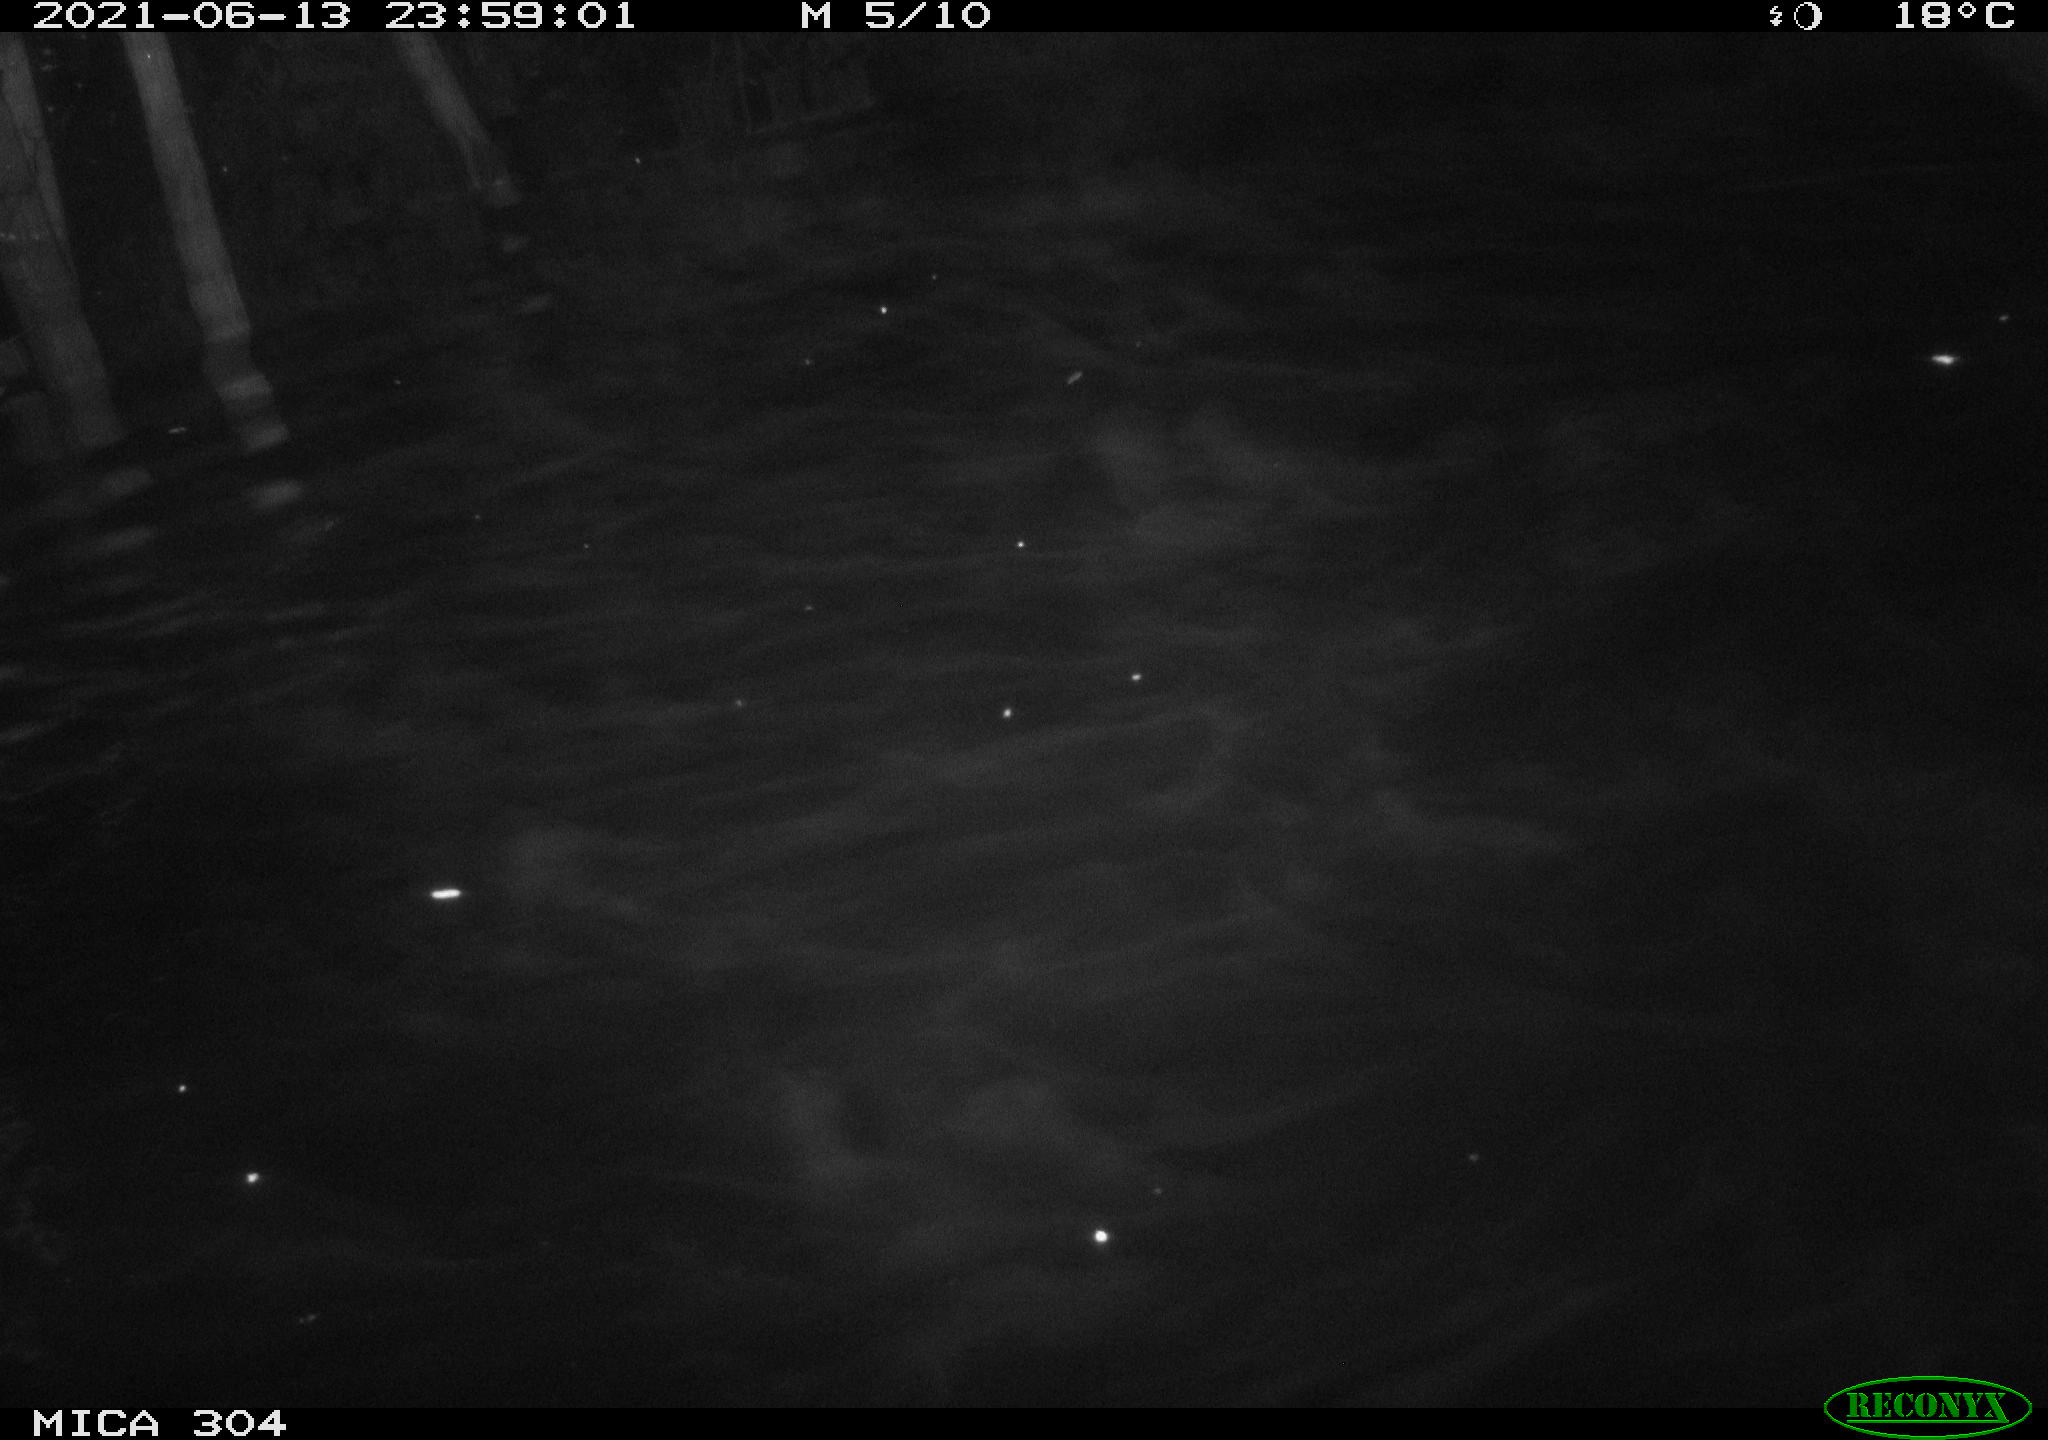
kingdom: Animalia
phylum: Chordata
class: Mammalia
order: Rodentia
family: Cricetidae
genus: Ondatra
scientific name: Ondatra zibethicus
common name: Muskrat
